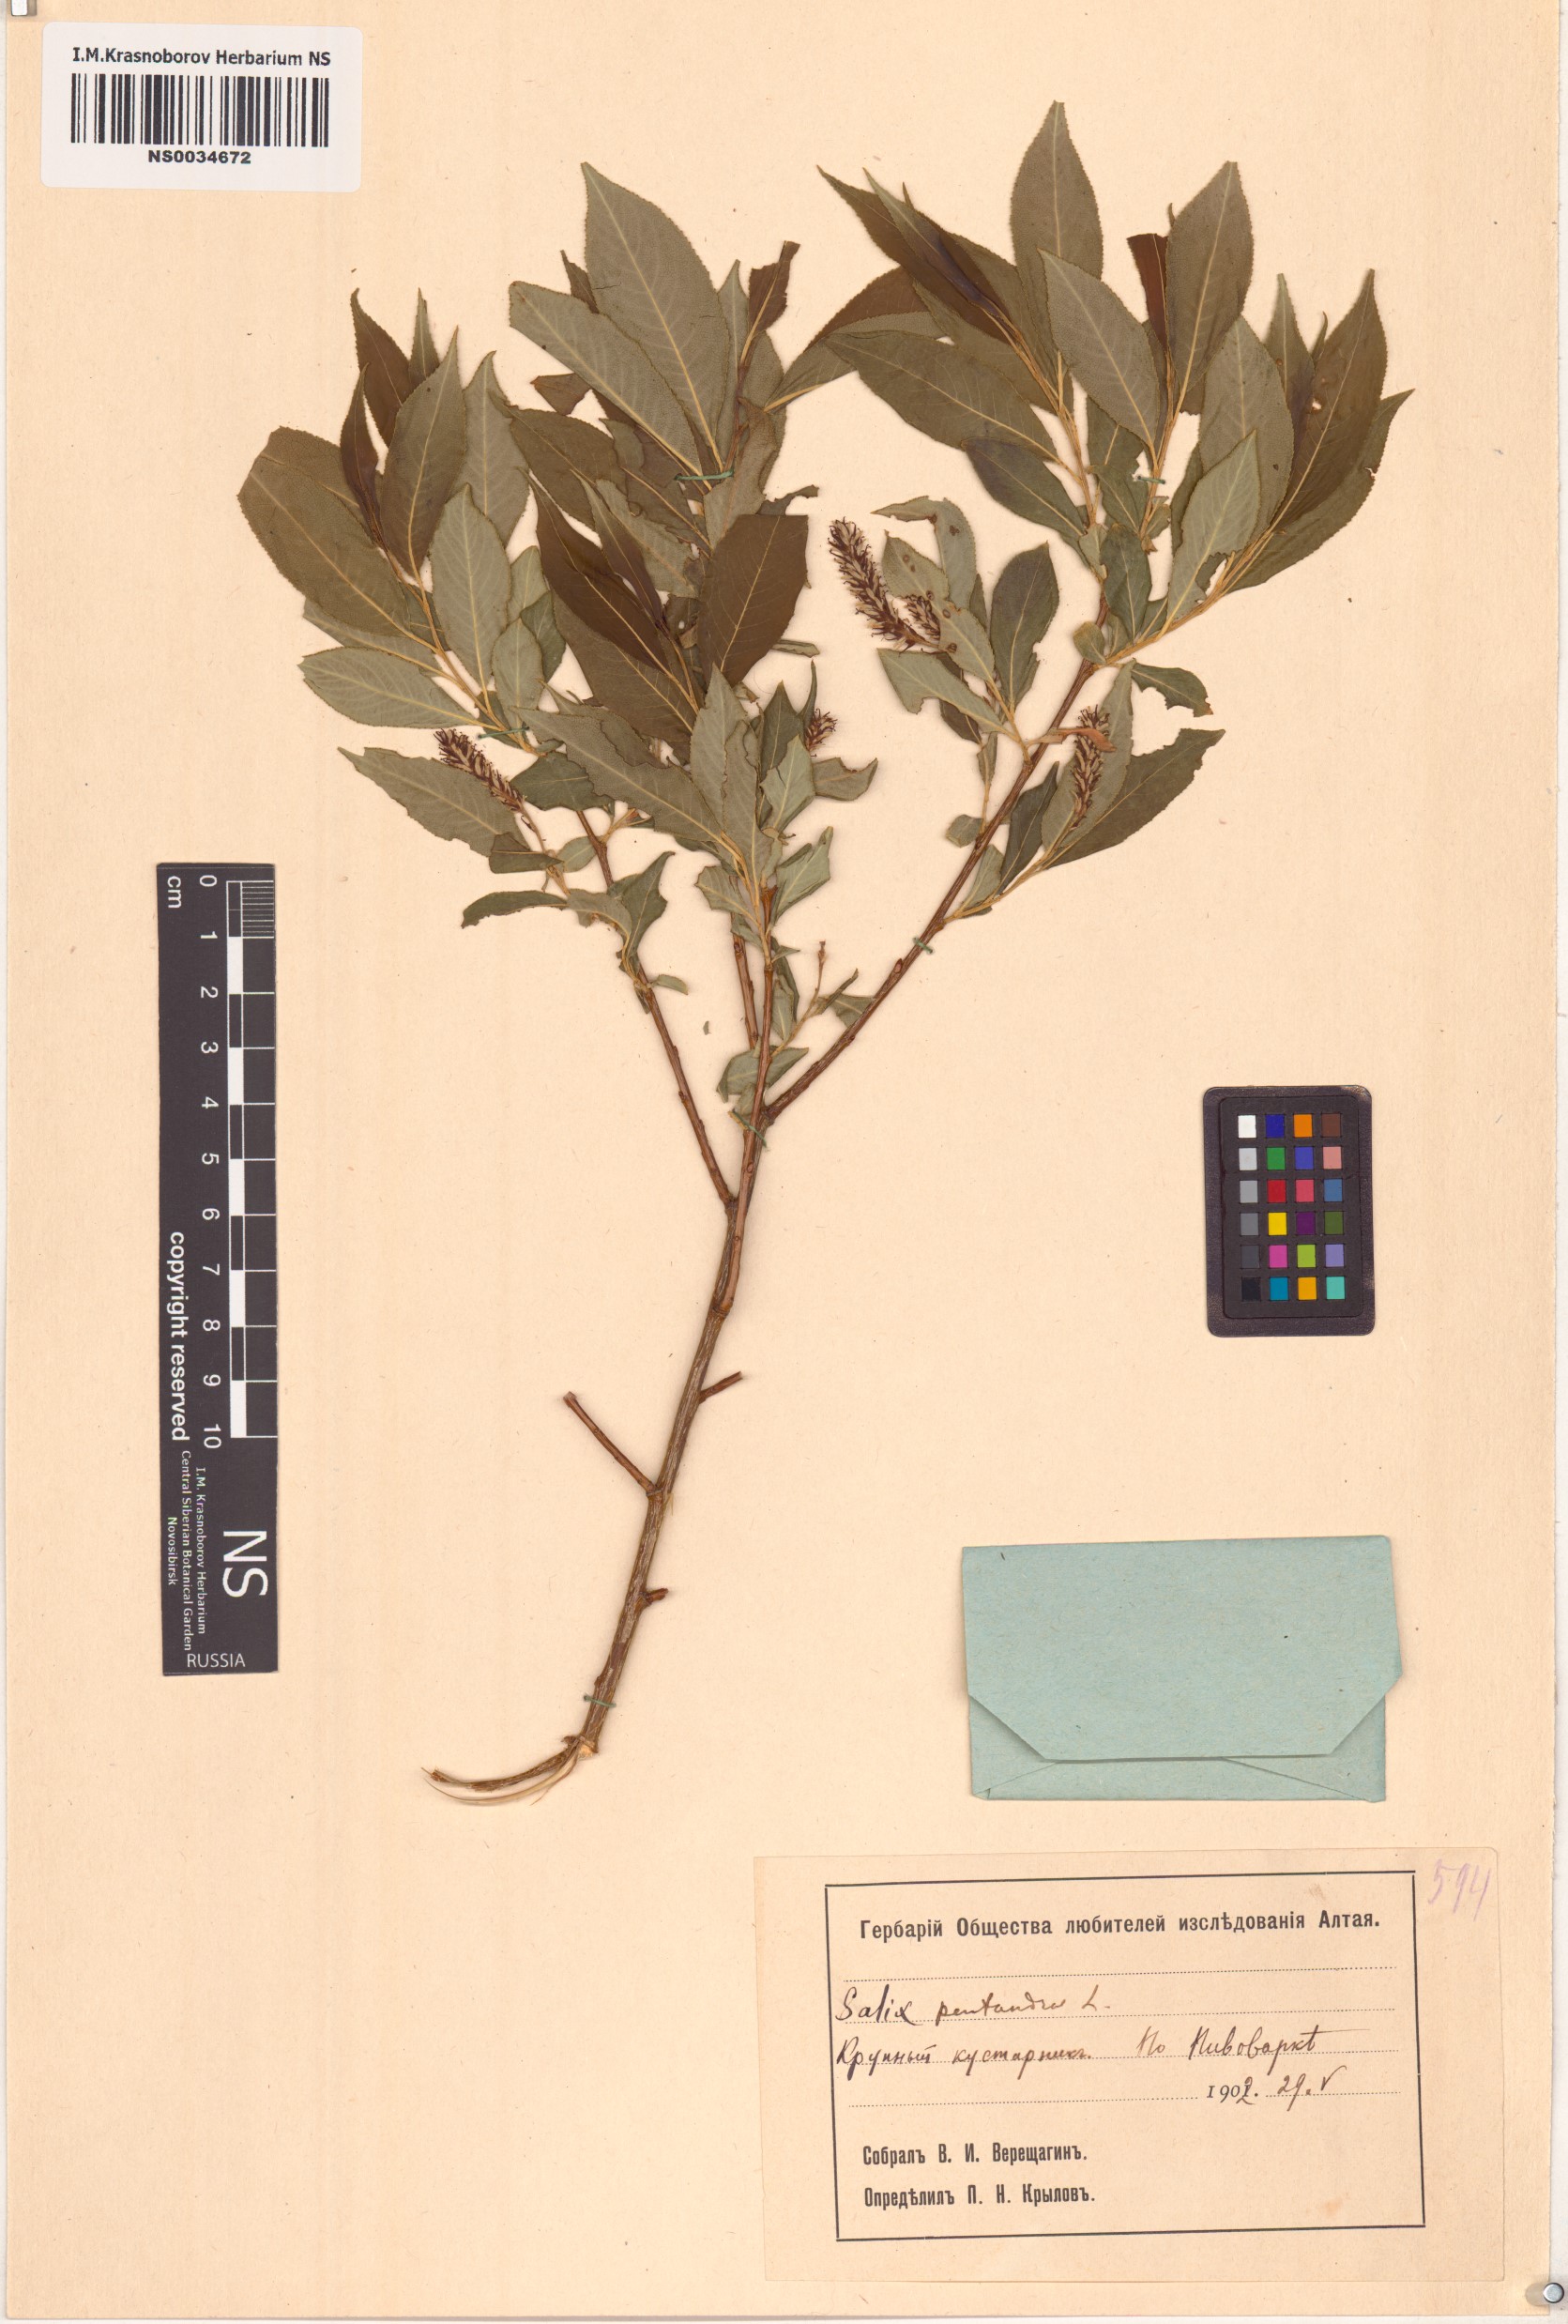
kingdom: Plantae
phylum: Tracheophyta
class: Magnoliopsida
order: Malpighiales
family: Salicaceae
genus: Salix
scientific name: Salix pentandra
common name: Bay willow
